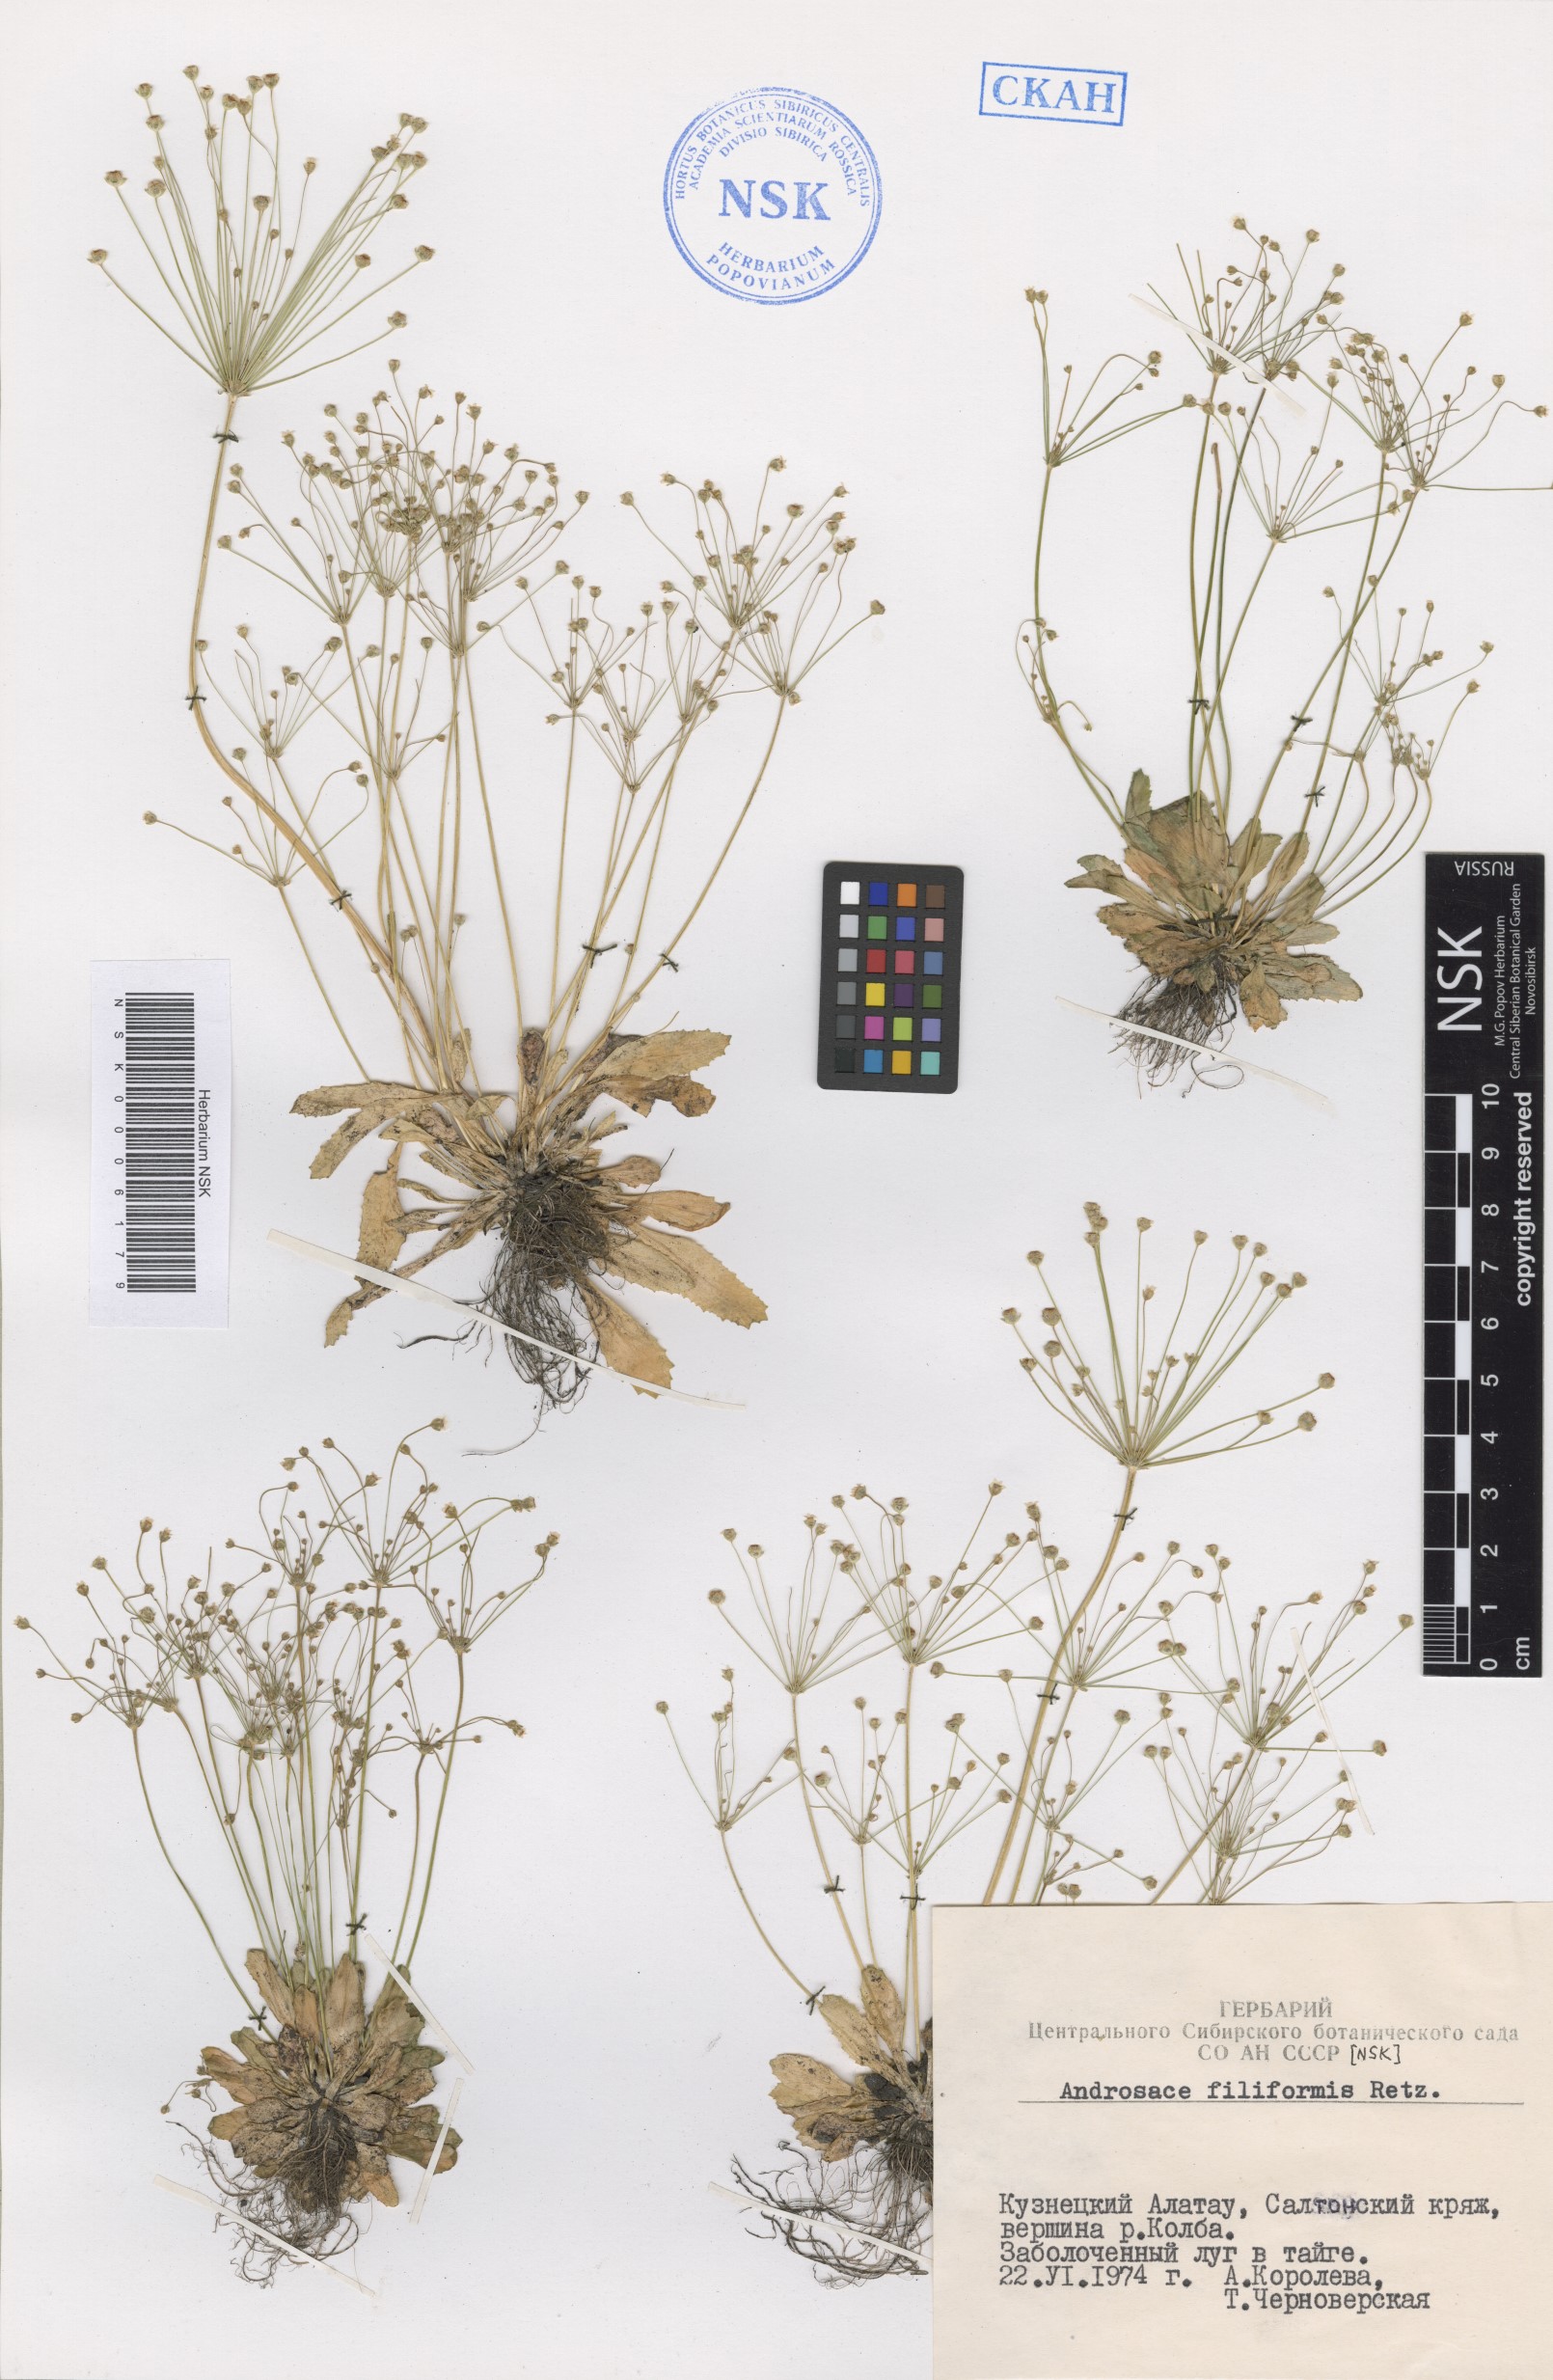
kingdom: Plantae
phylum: Tracheophyta
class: Magnoliopsida
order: Ericales
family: Primulaceae
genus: Androsace
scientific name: Androsace filiformis
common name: Filiform rock jasmine
